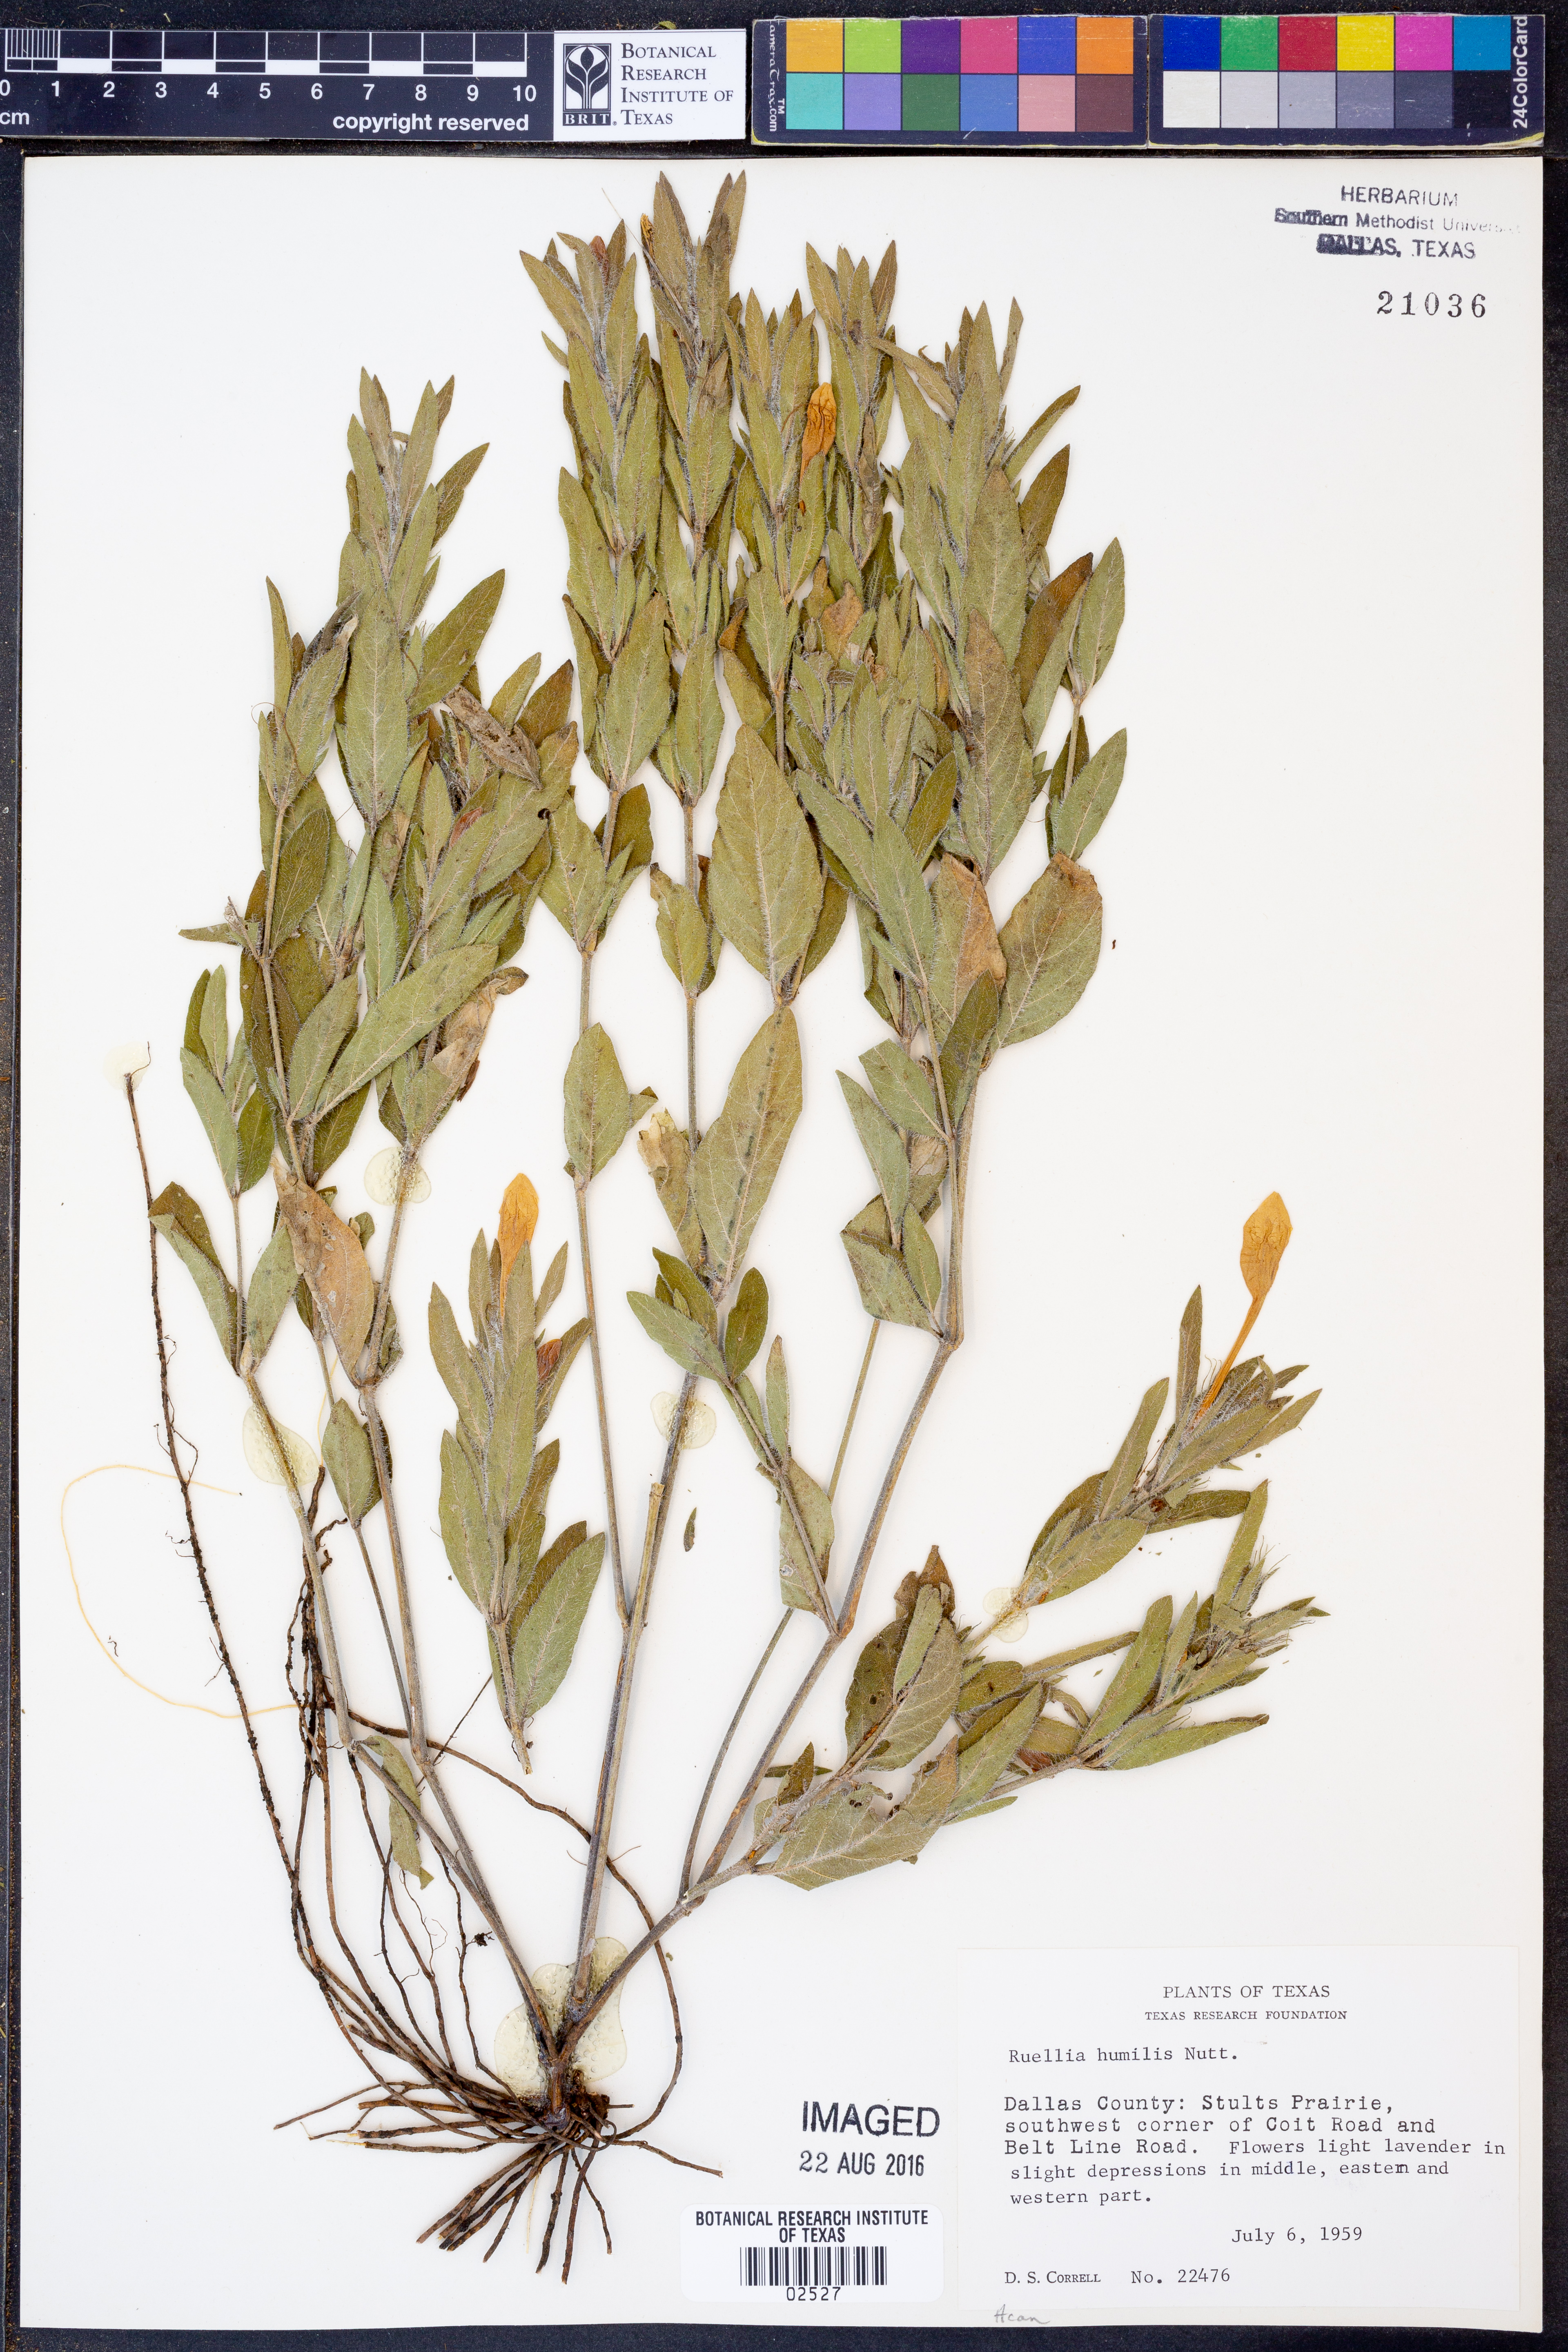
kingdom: Plantae
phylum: Tracheophyta
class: Magnoliopsida
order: Lamiales
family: Acanthaceae
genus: Ruellia
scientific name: Ruellia humilis
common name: Fringe-leaf ruellia
